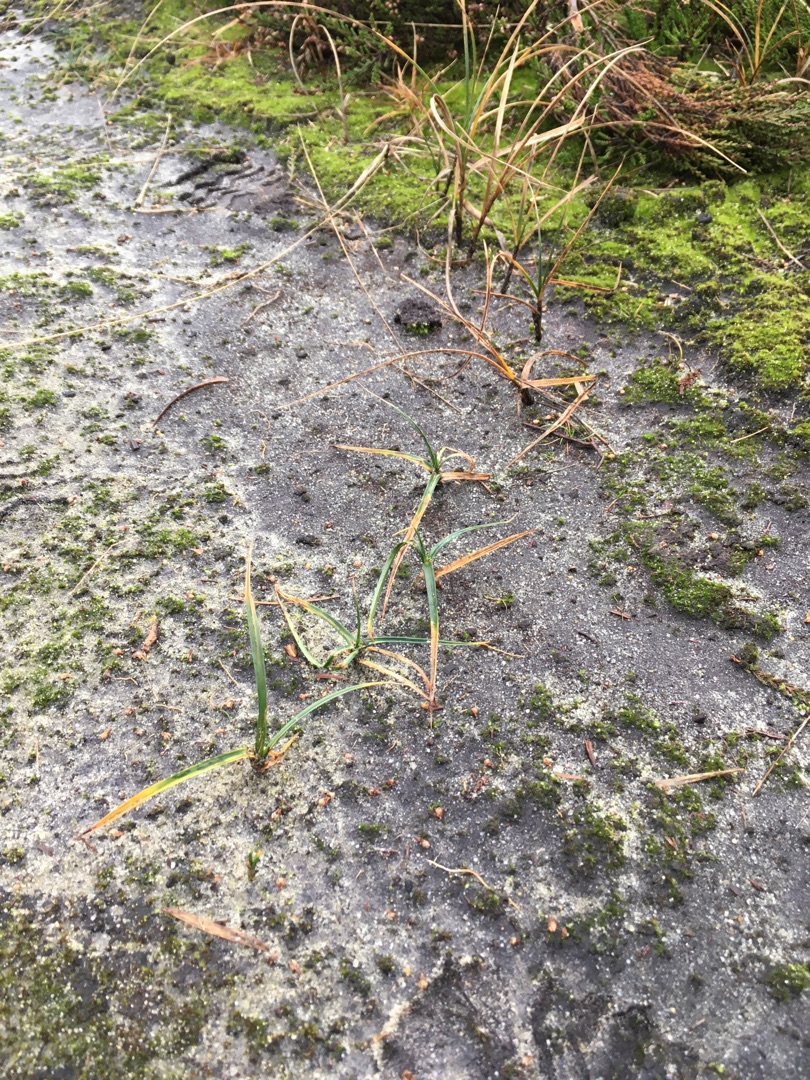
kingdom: Plantae
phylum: Tracheophyta
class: Liliopsida
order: Poales
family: Cyperaceae
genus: Carex
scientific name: Carex arenaria
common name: Sand-star
